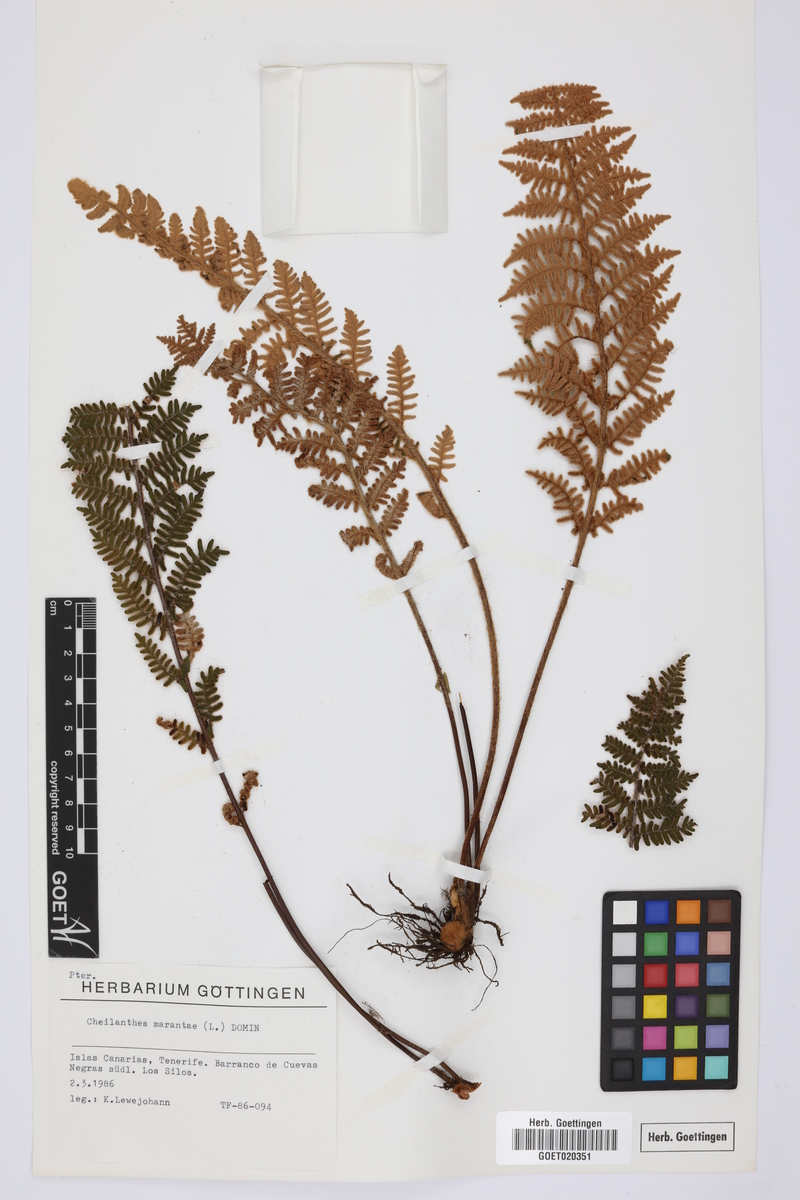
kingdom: Plantae
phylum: Tracheophyta
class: Polypodiopsida
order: Polypodiales
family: Pteridaceae
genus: Paragymnopteris
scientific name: Paragymnopteris marantae
